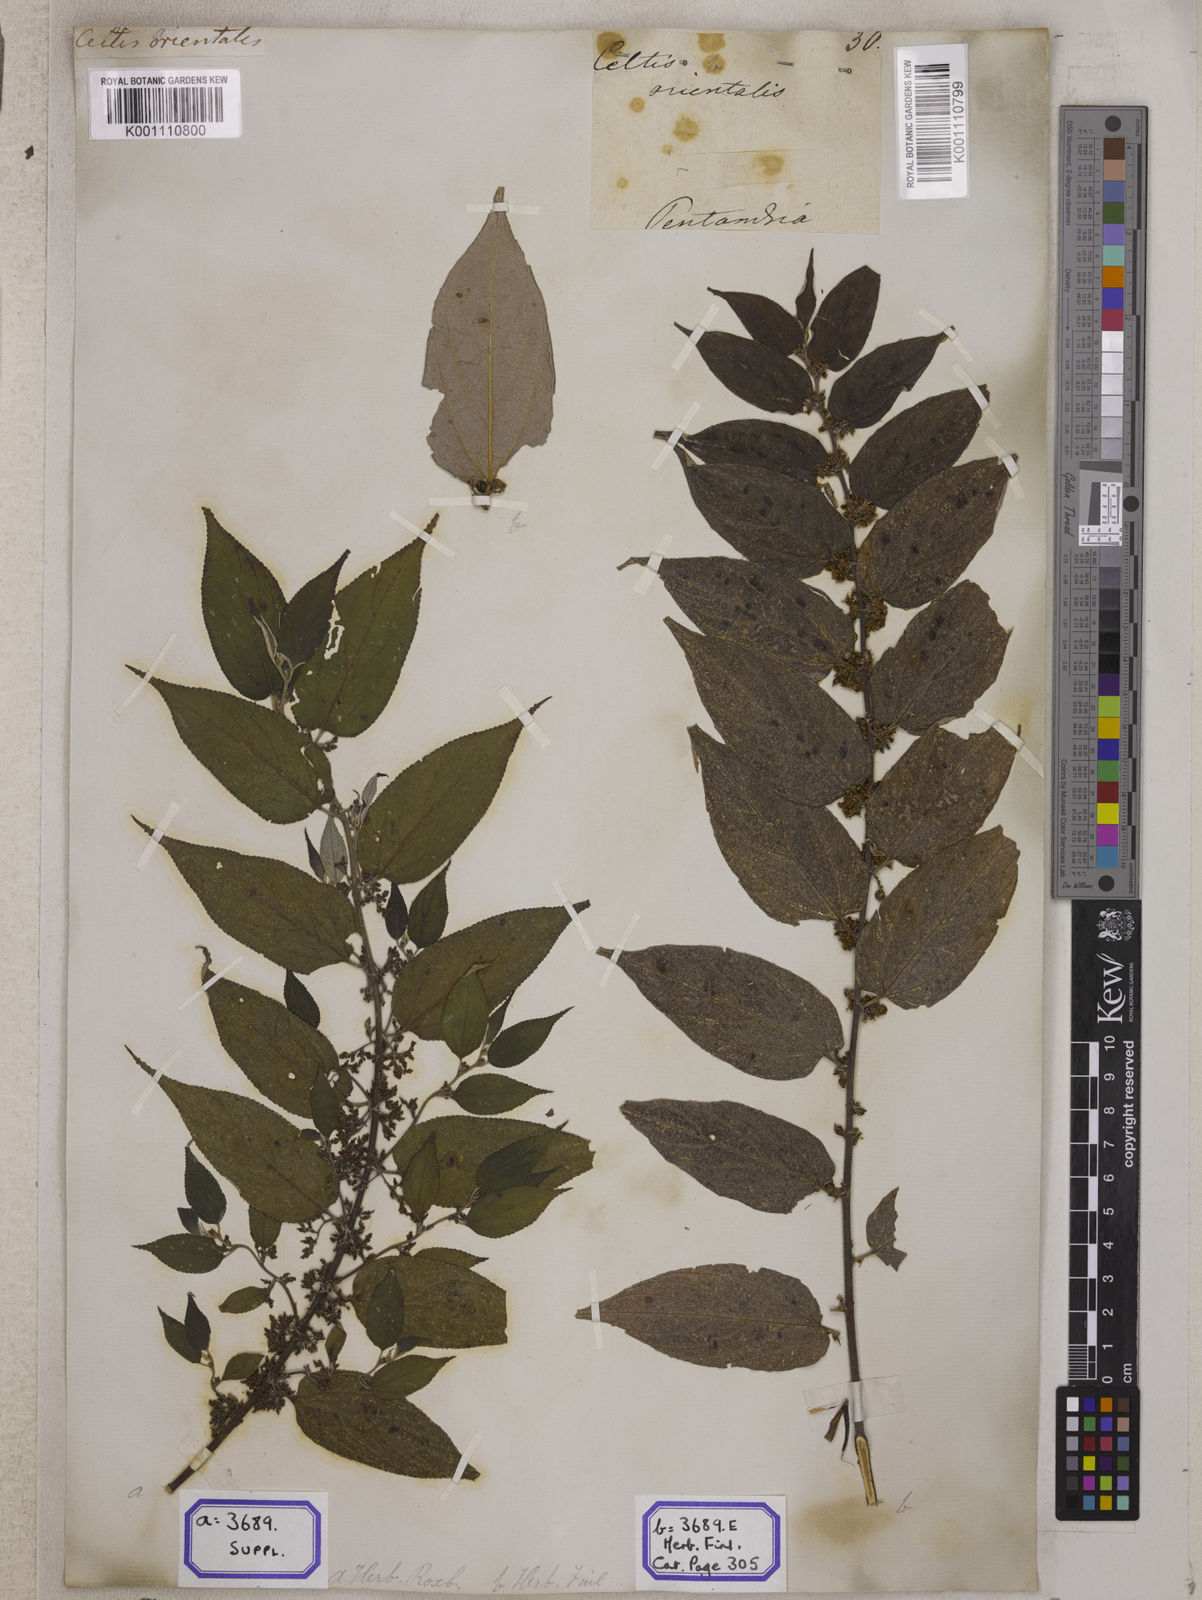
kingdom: Plantae
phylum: Tracheophyta
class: Magnoliopsida
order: Rosales
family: Cannabaceae
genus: Trema
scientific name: Trema orientale
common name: Indian charcoal tree
